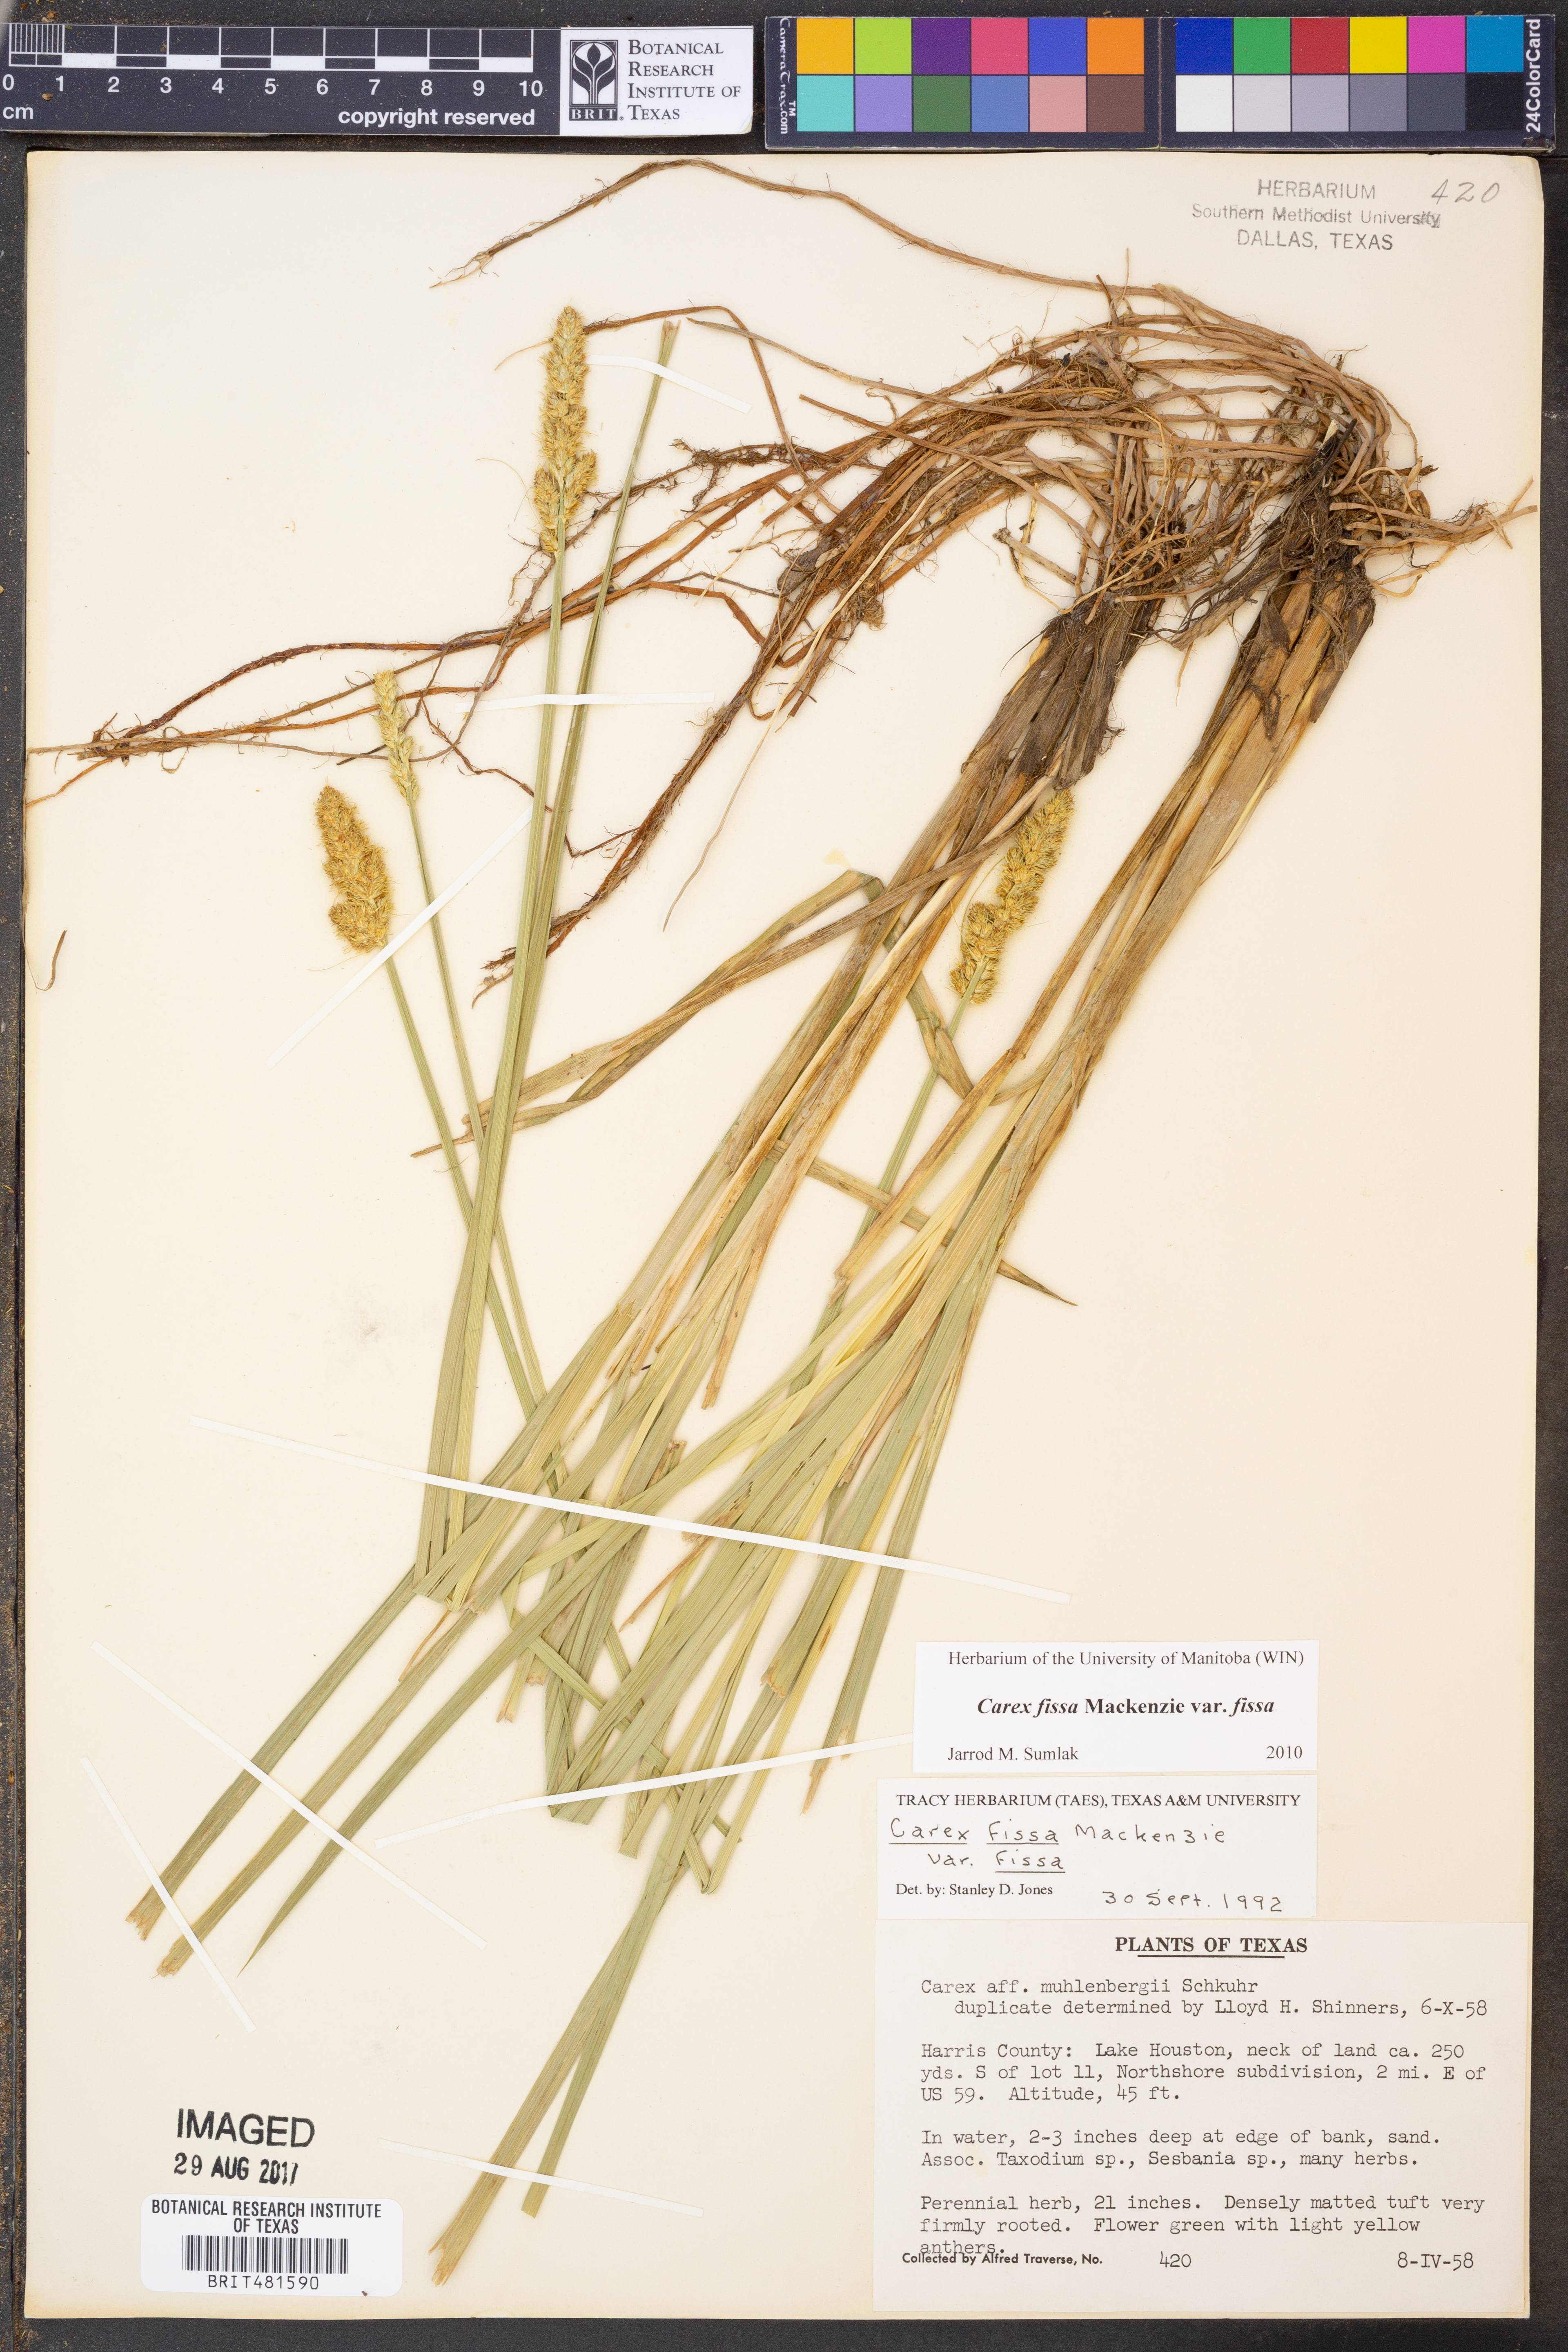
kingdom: Plantae
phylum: Tracheophyta
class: Liliopsida
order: Poales
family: Cyperaceae
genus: Carex
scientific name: Carex fissa
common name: Hammock sedge
